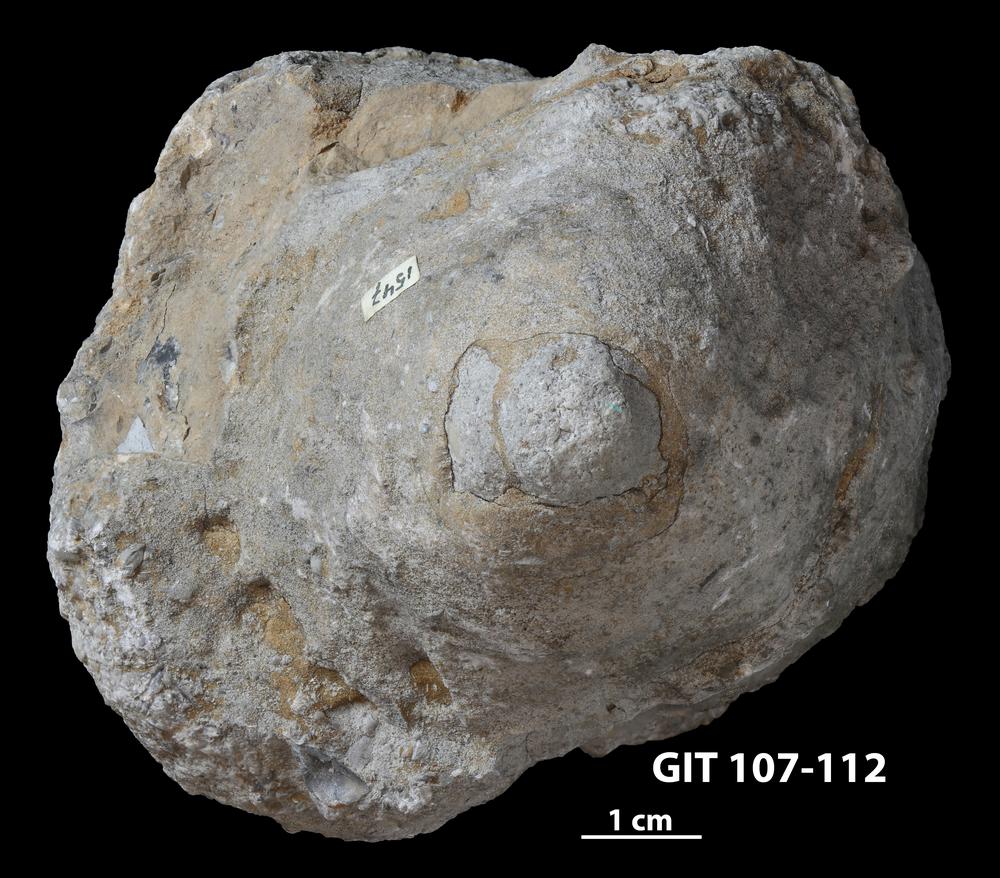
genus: Conichnus
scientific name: Conichnus
